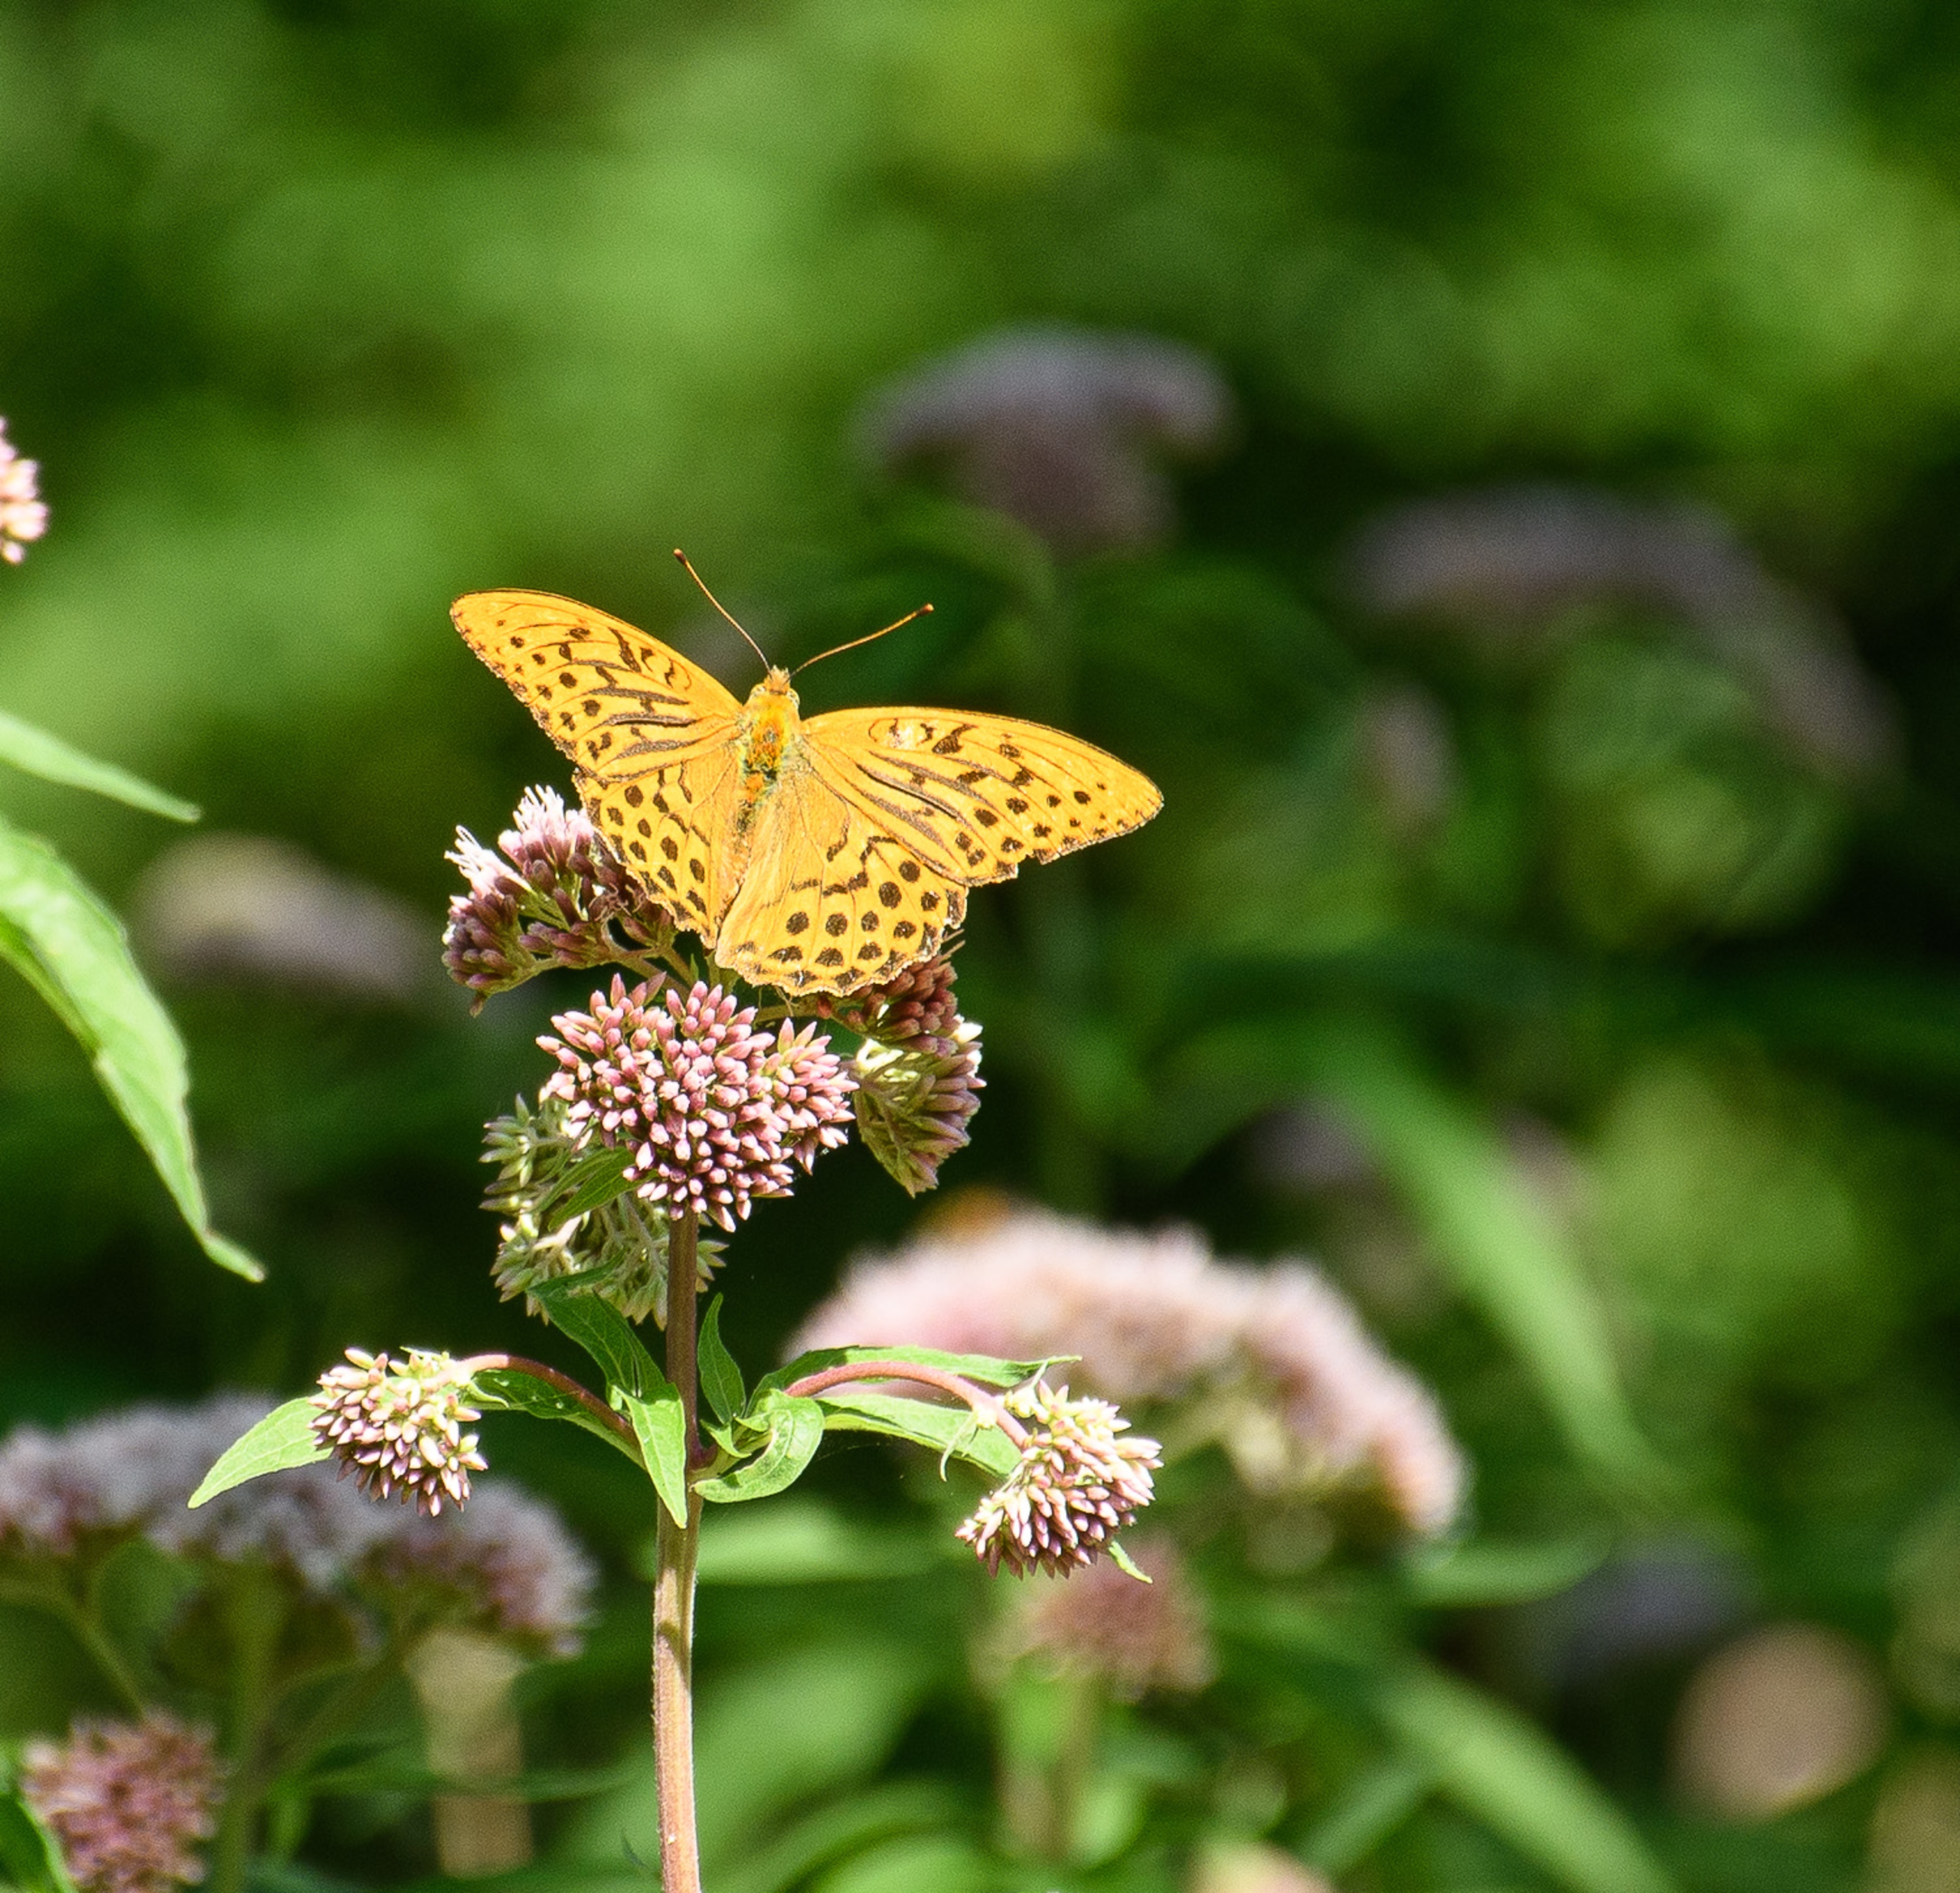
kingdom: Animalia
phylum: Arthropoda
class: Insecta
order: Lepidoptera
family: Nymphalidae
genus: Argynnis
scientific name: Argynnis paphia
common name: Kejserkåbe
